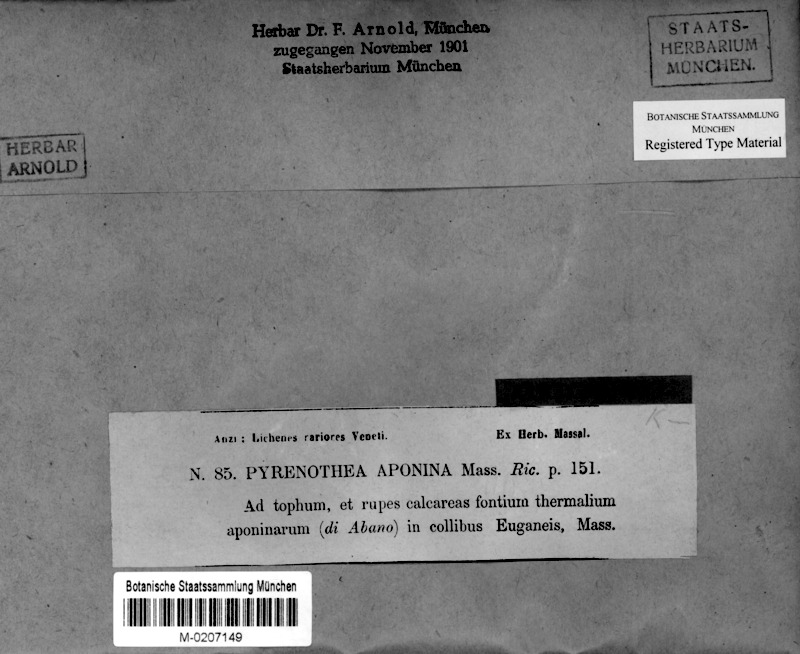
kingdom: Fungi
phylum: Ascomycota
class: Arthoniomycetes
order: Arthoniales
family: Roccellaceae
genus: Dirina
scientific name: Dirina massiliensis
